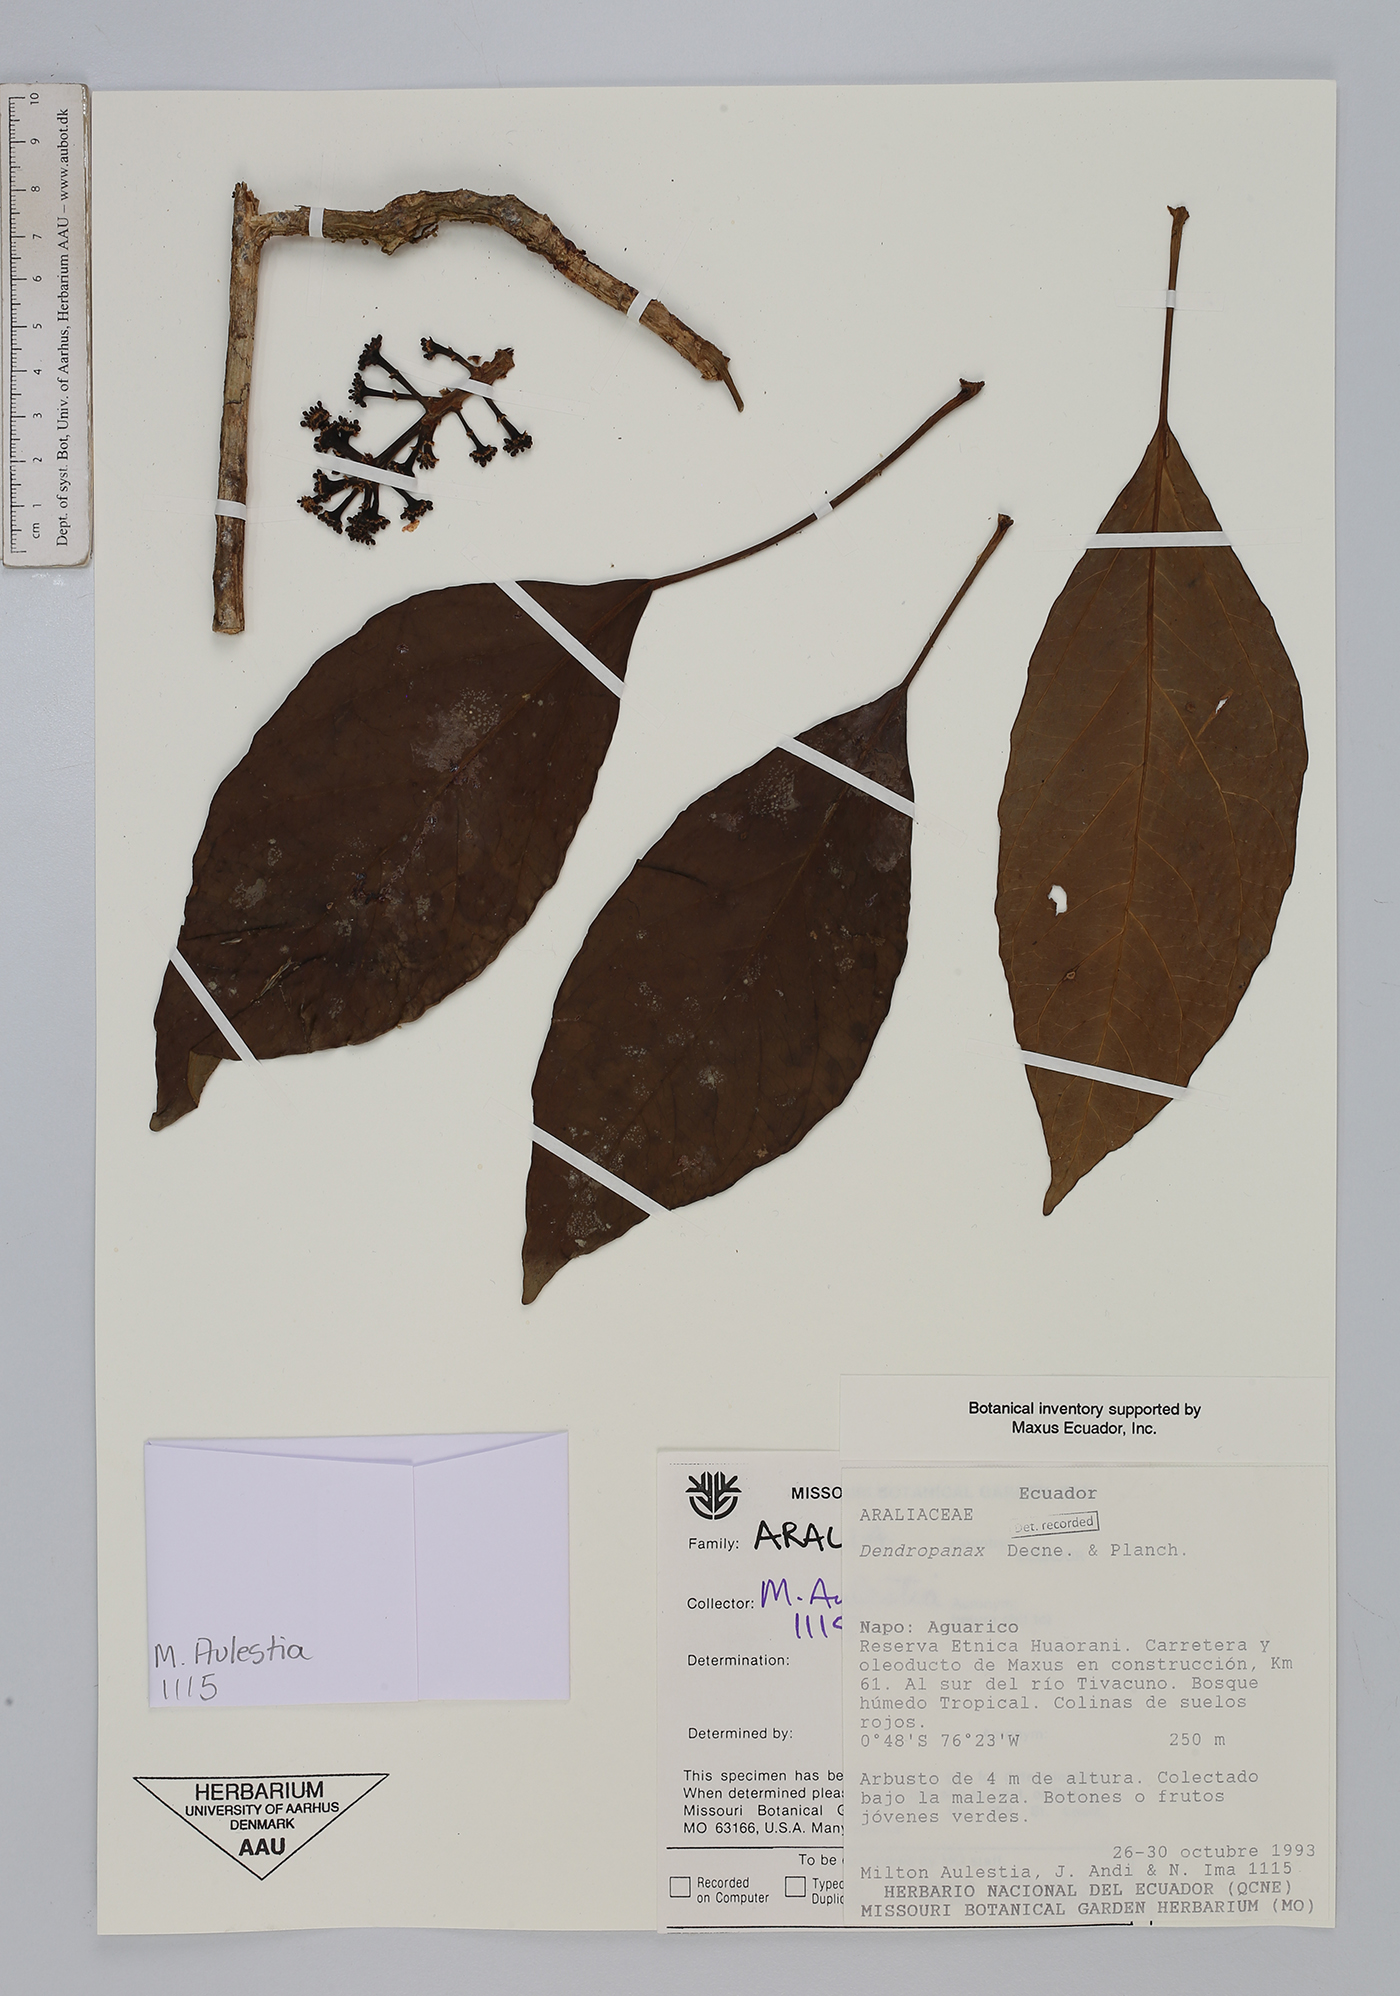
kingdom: Plantae
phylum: Tracheophyta
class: Magnoliopsida
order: Apiales
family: Araliaceae
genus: Dendropanax
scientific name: Dendropanax
